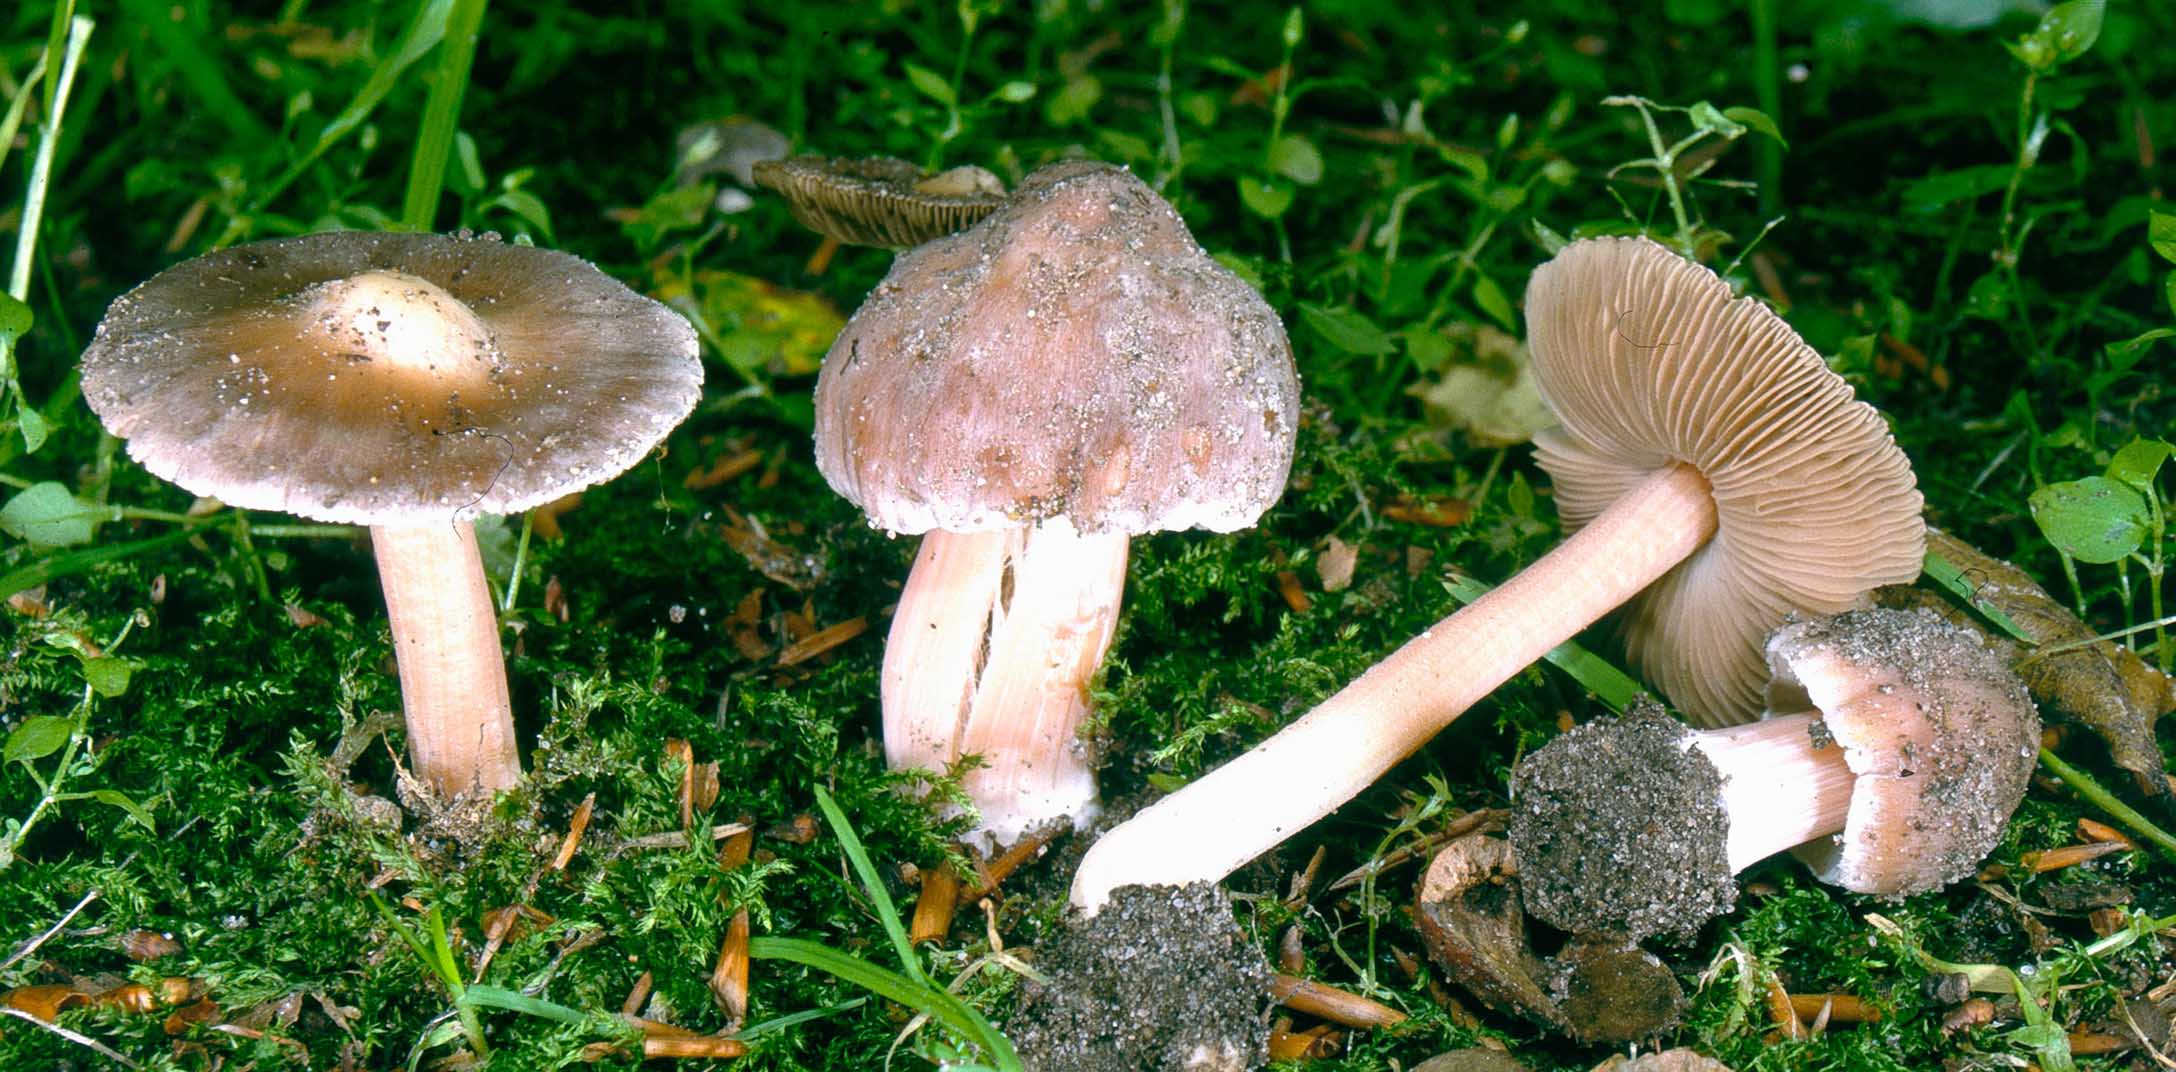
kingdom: Fungi
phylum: Basidiomycota
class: Agaricomycetes
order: Agaricales
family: Inocybaceae
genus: Inocybe
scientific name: Inocybe grammata
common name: lystoppet trævlhat
